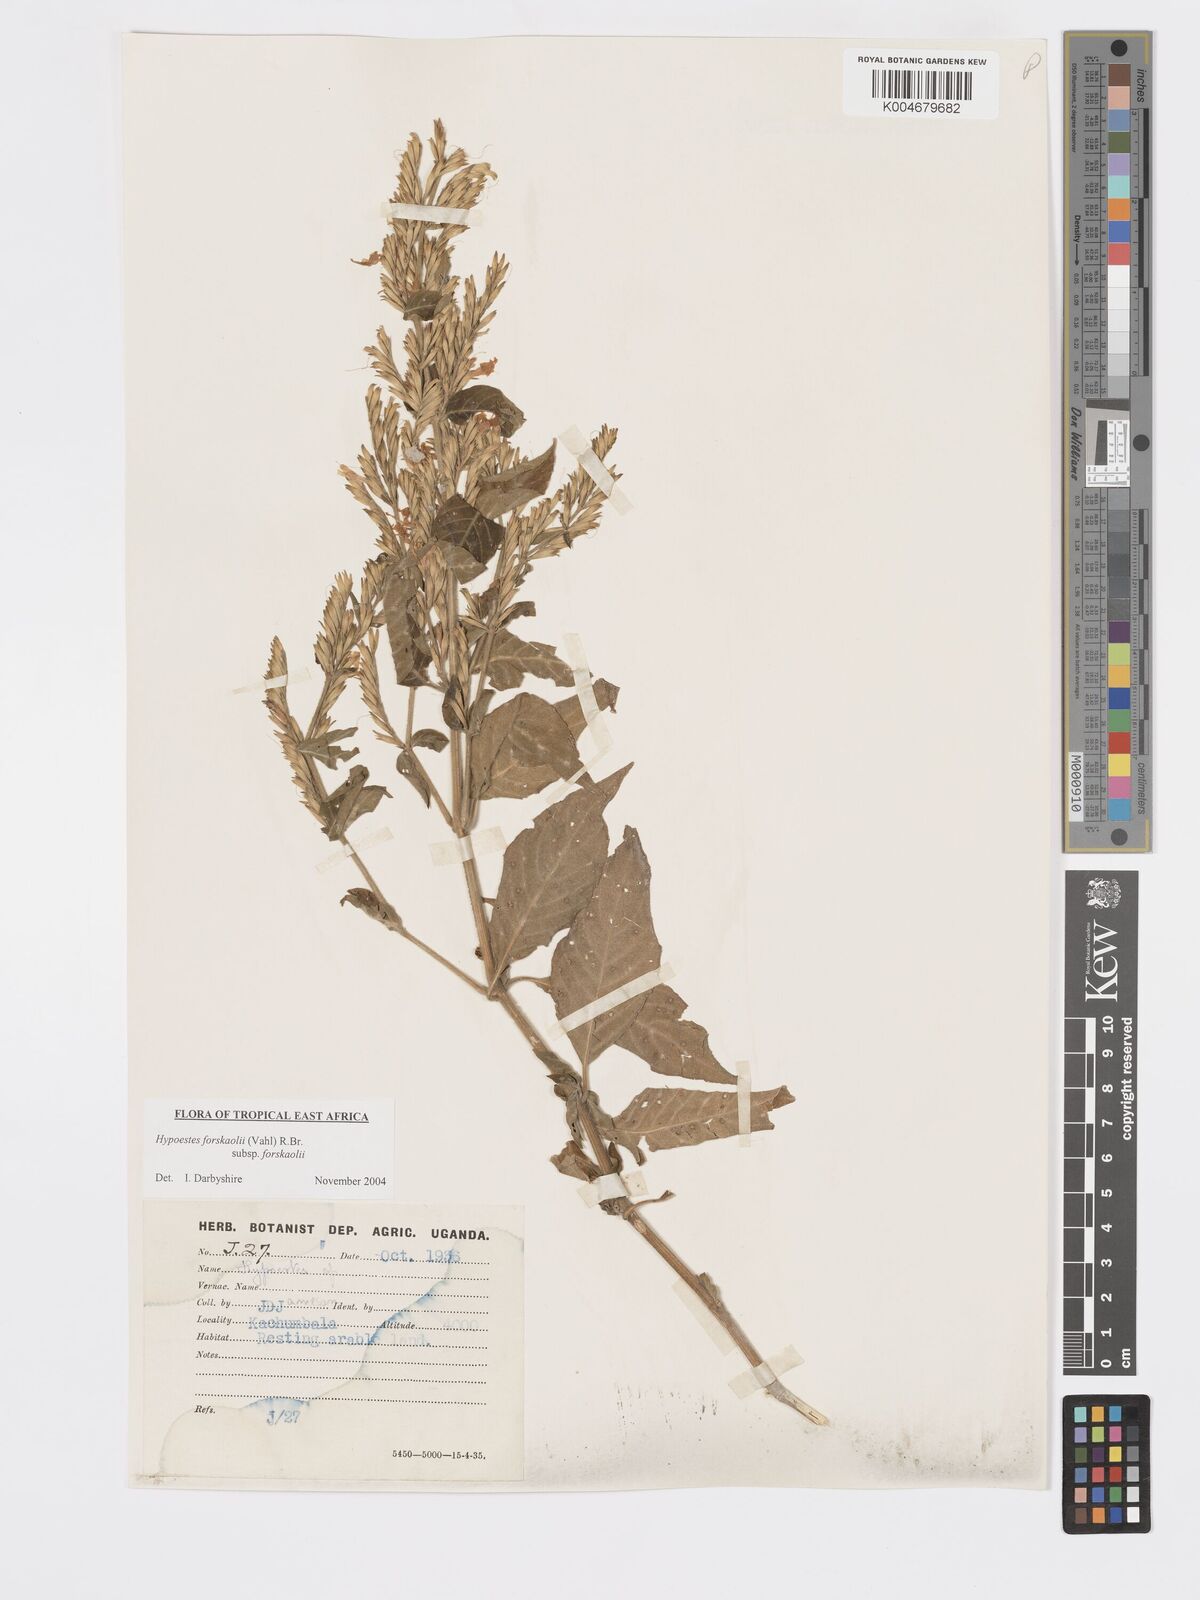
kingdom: Plantae
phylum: Tracheophyta
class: Magnoliopsida
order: Lamiales
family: Acanthaceae
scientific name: Acanthaceae
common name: Acanthaceae
